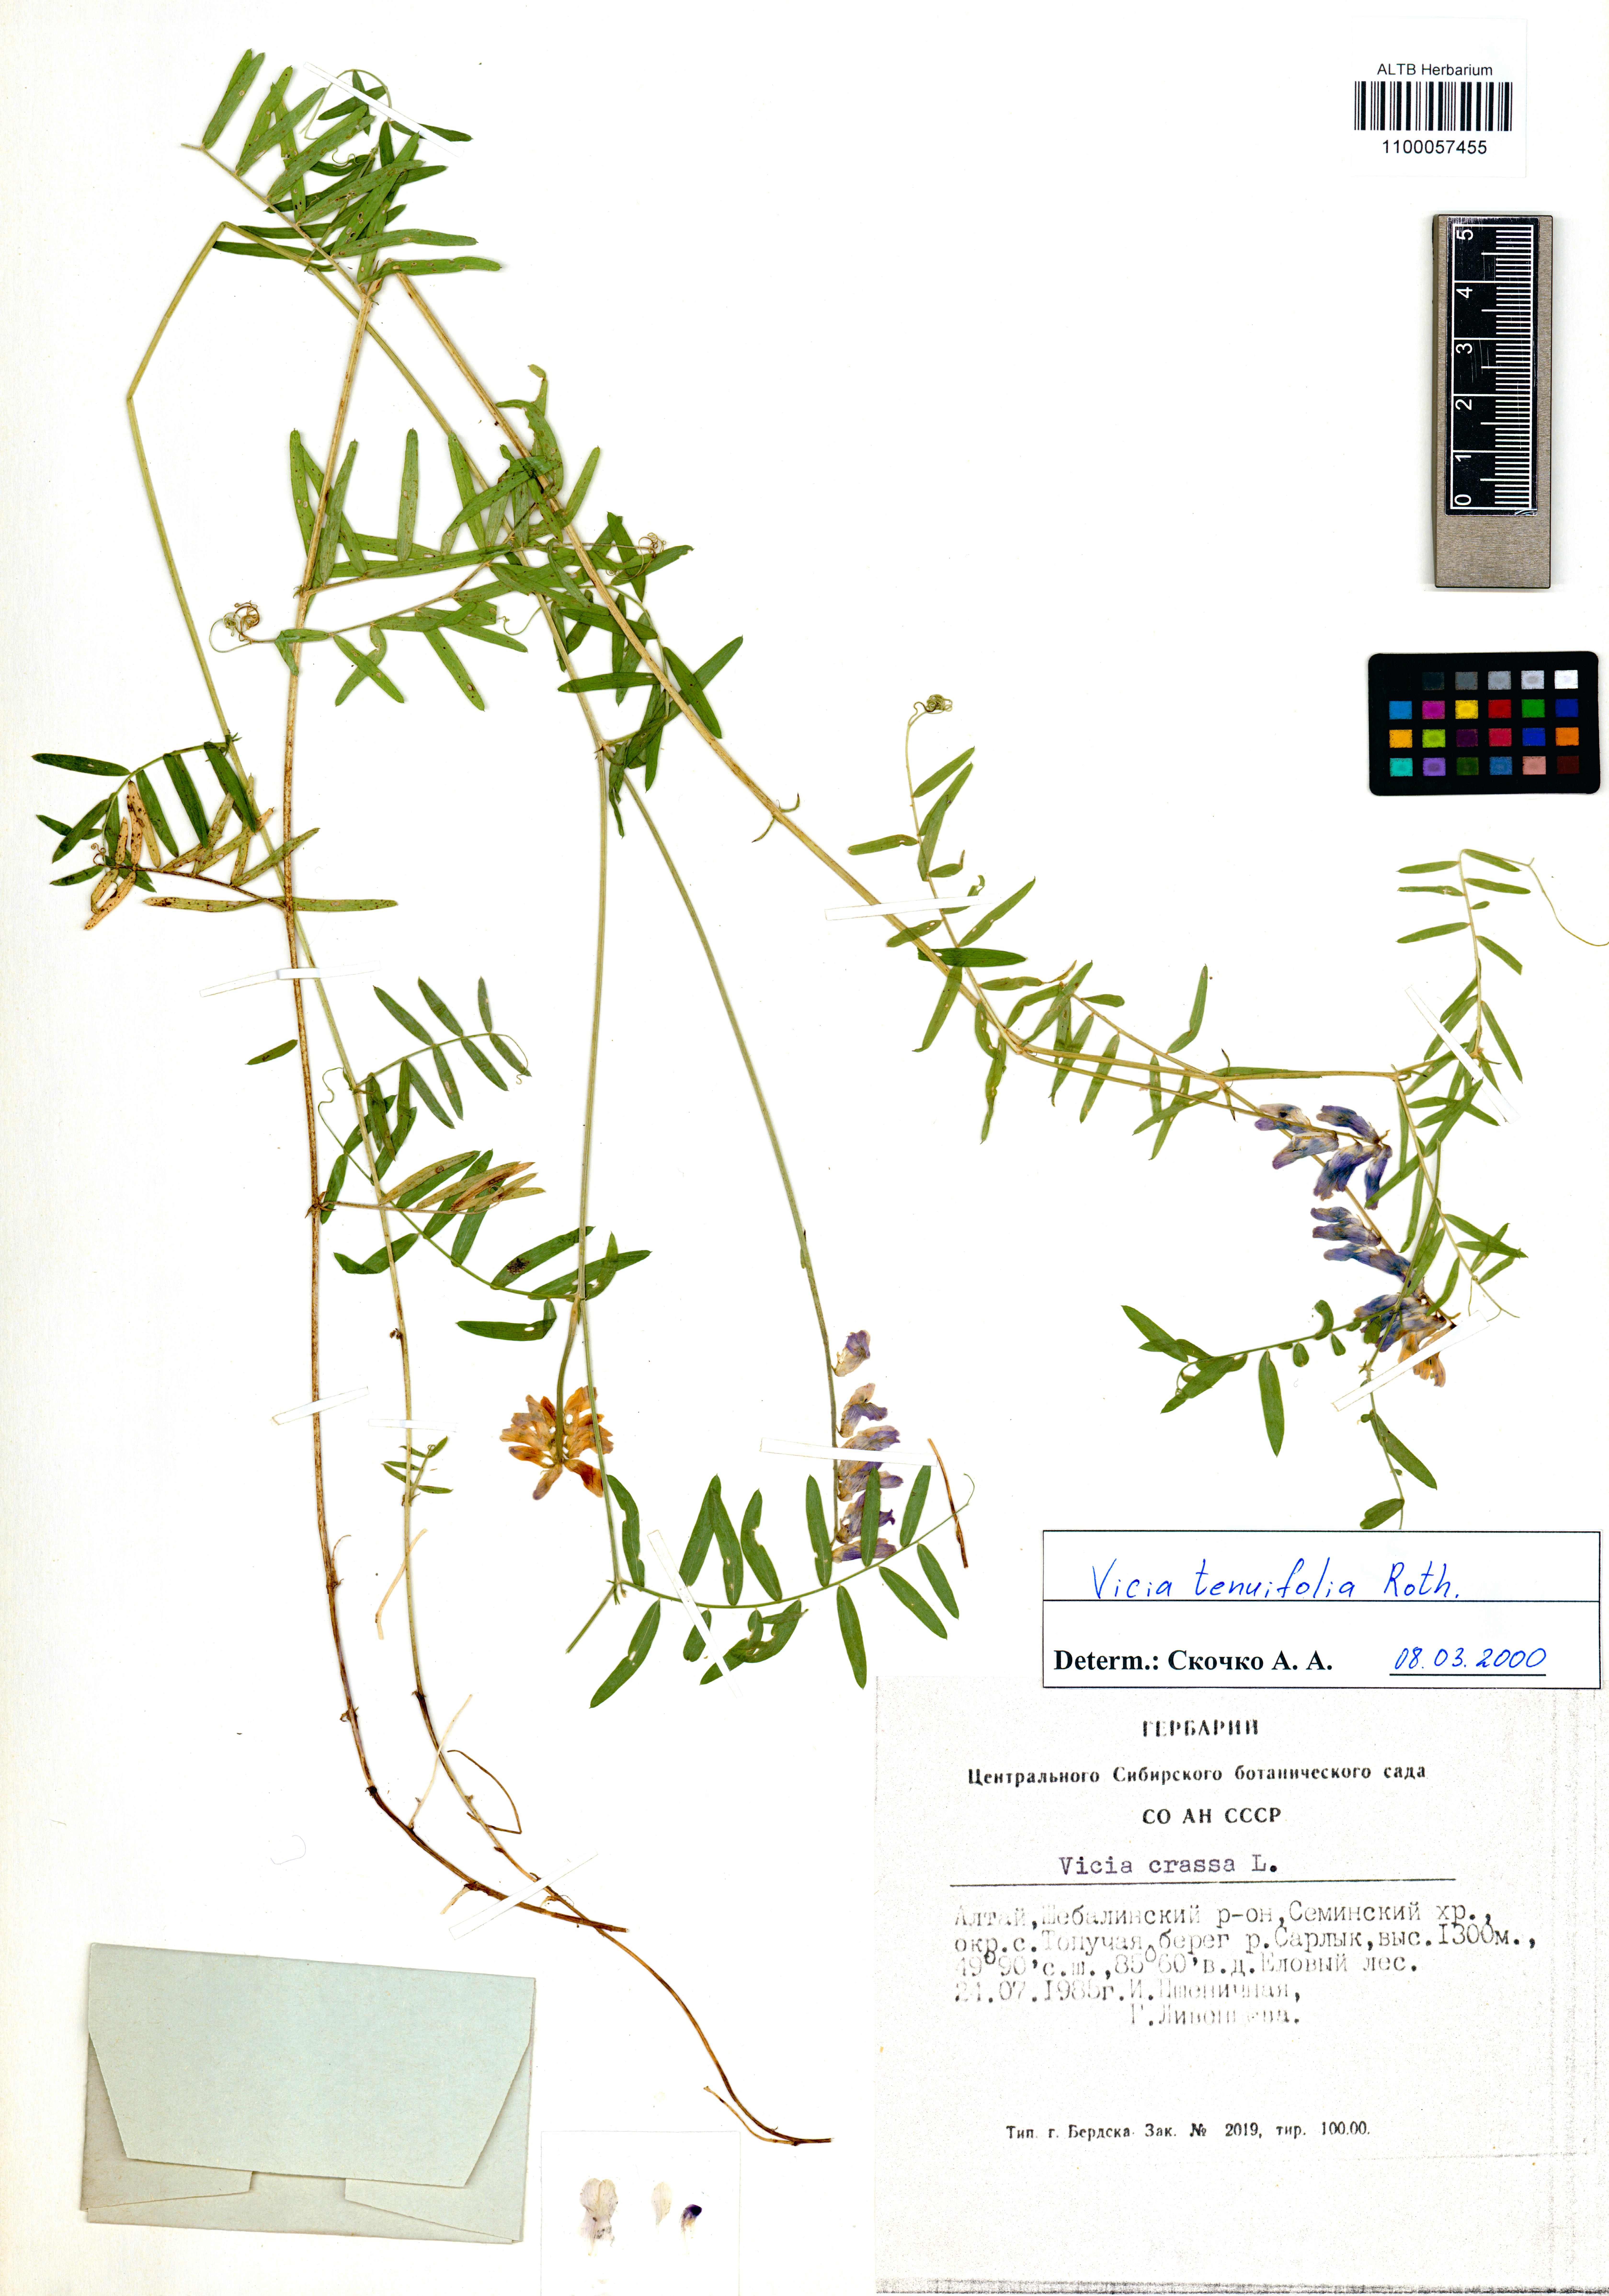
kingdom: Plantae
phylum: Tracheophyta
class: Magnoliopsida
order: Fabales
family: Fabaceae
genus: Vicia
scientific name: Vicia tenuifolia
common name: Fine-leaved vetch
